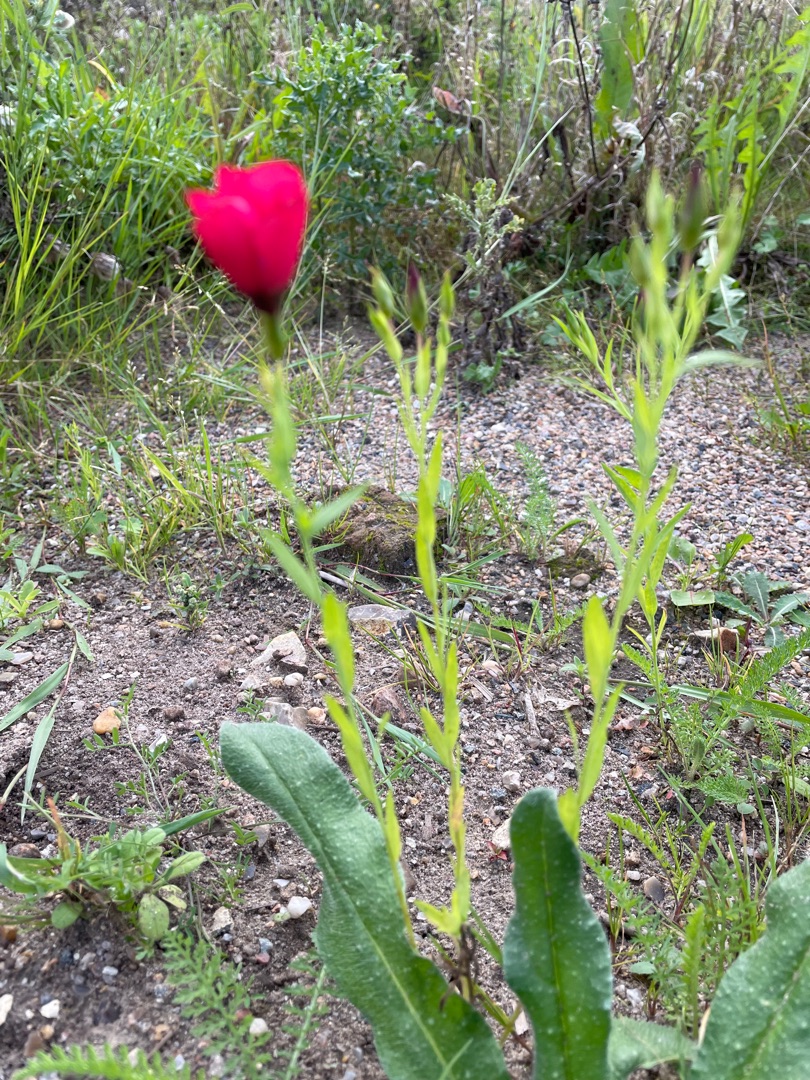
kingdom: Plantae
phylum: Tracheophyta
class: Magnoliopsida
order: Malpighiales
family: Linaceae
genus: Linum
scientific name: Linum grandiflorum
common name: Rød hør
